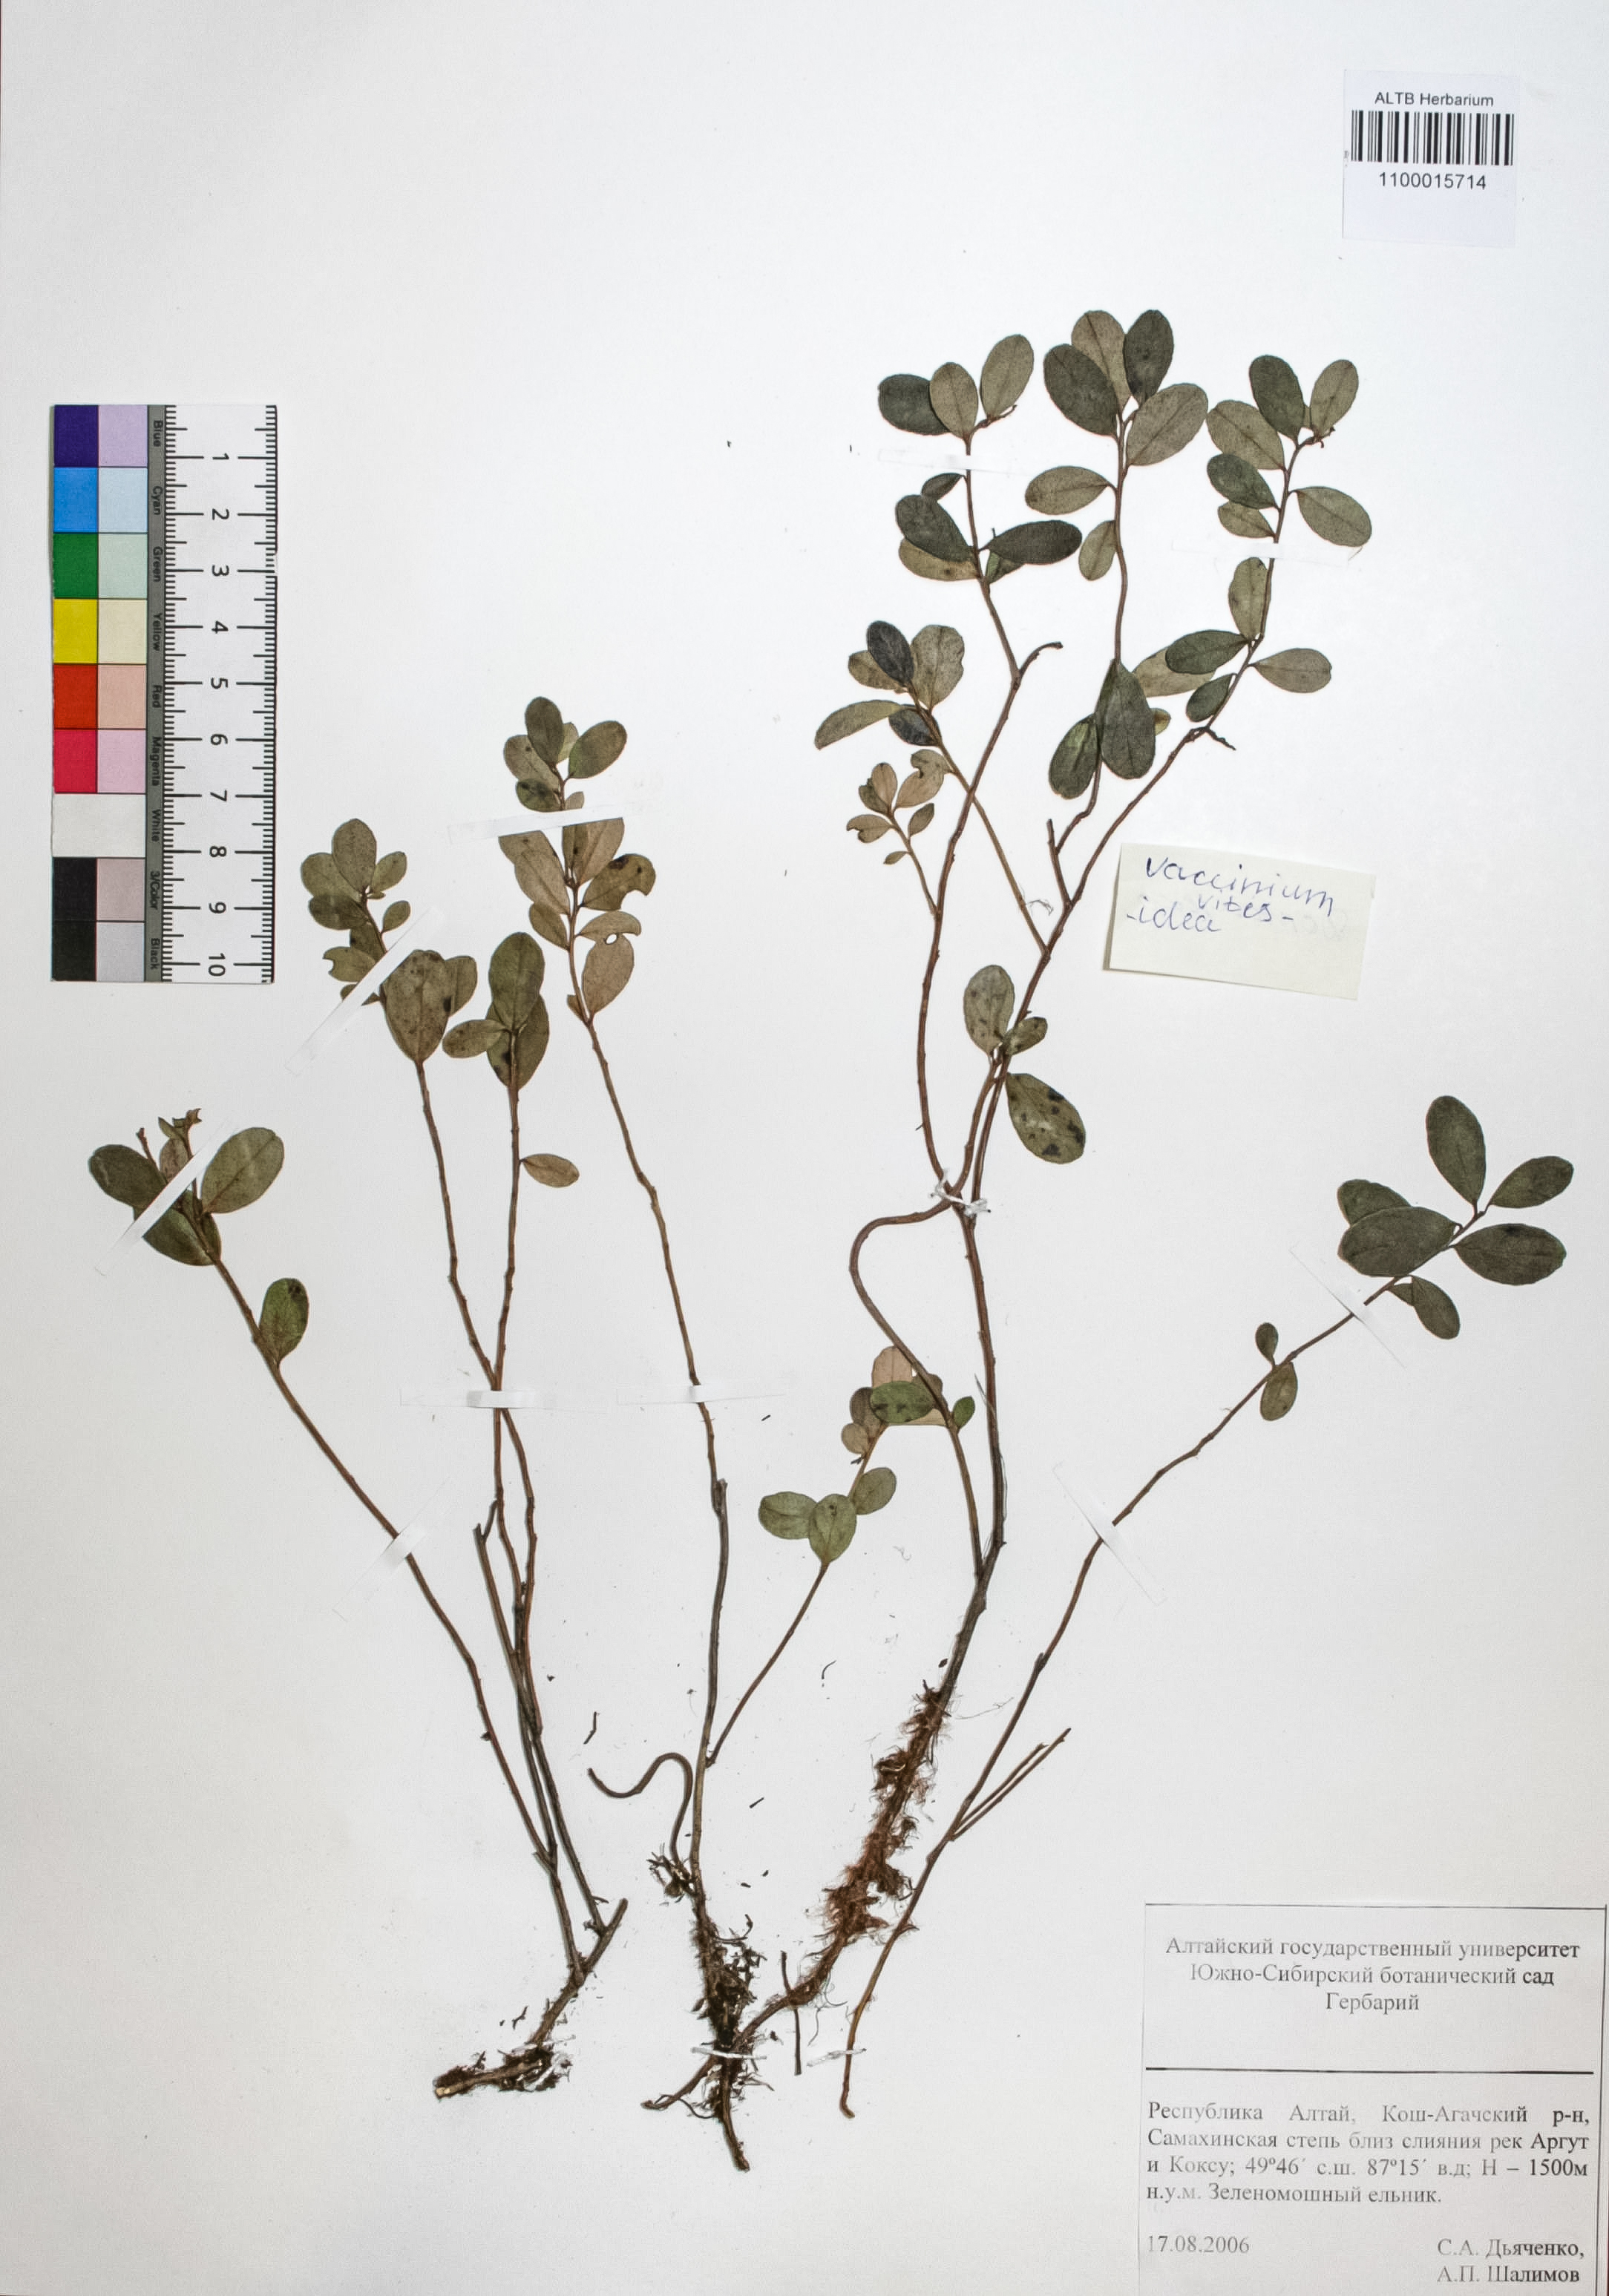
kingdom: Plantae
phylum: Tracheophyta
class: Magnoliopsida
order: Ericales
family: Ericaceae
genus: Vaccinium
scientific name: Vaccinium vitis-idaea
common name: Cowberry
